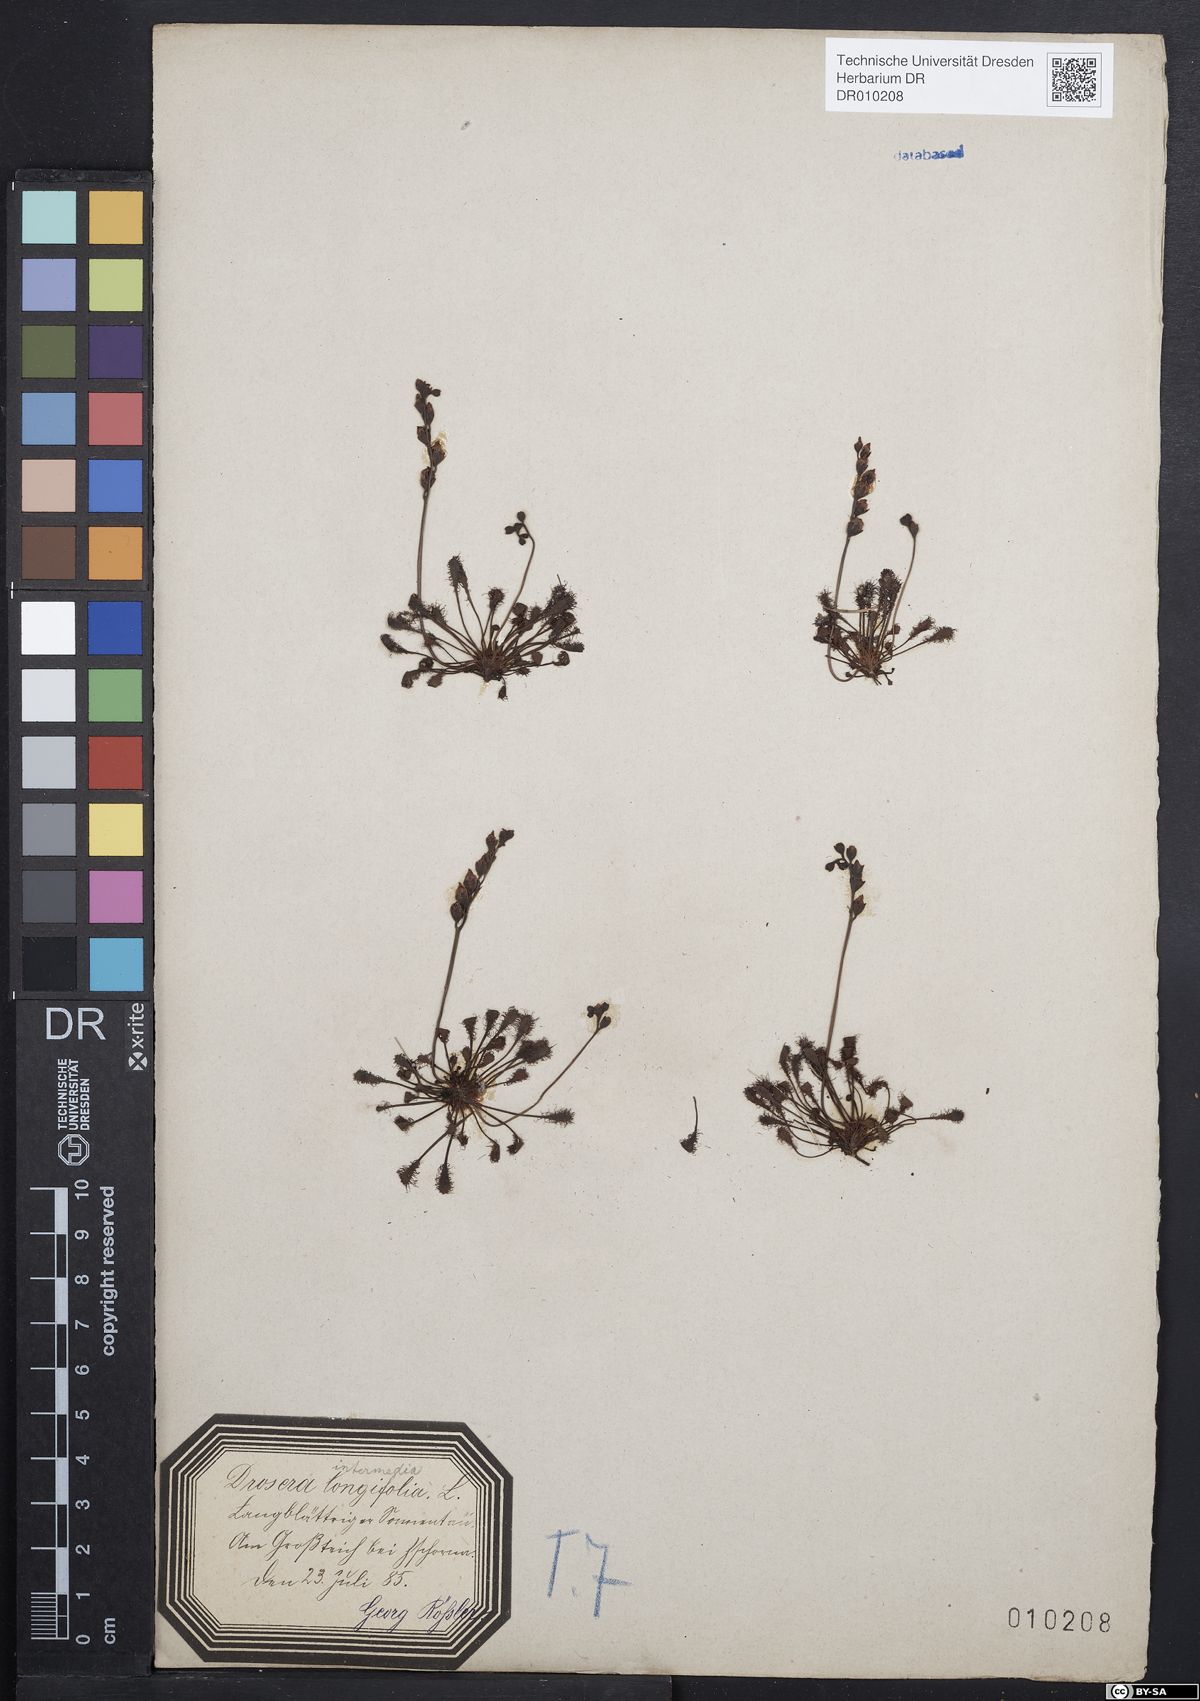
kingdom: Plantae
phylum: Tracheophyta
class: Magnoliopsida
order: Caryophyllales
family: Droseraceae
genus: Drosera
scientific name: Drosera intermedia
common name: Oblong-leaved sundew
